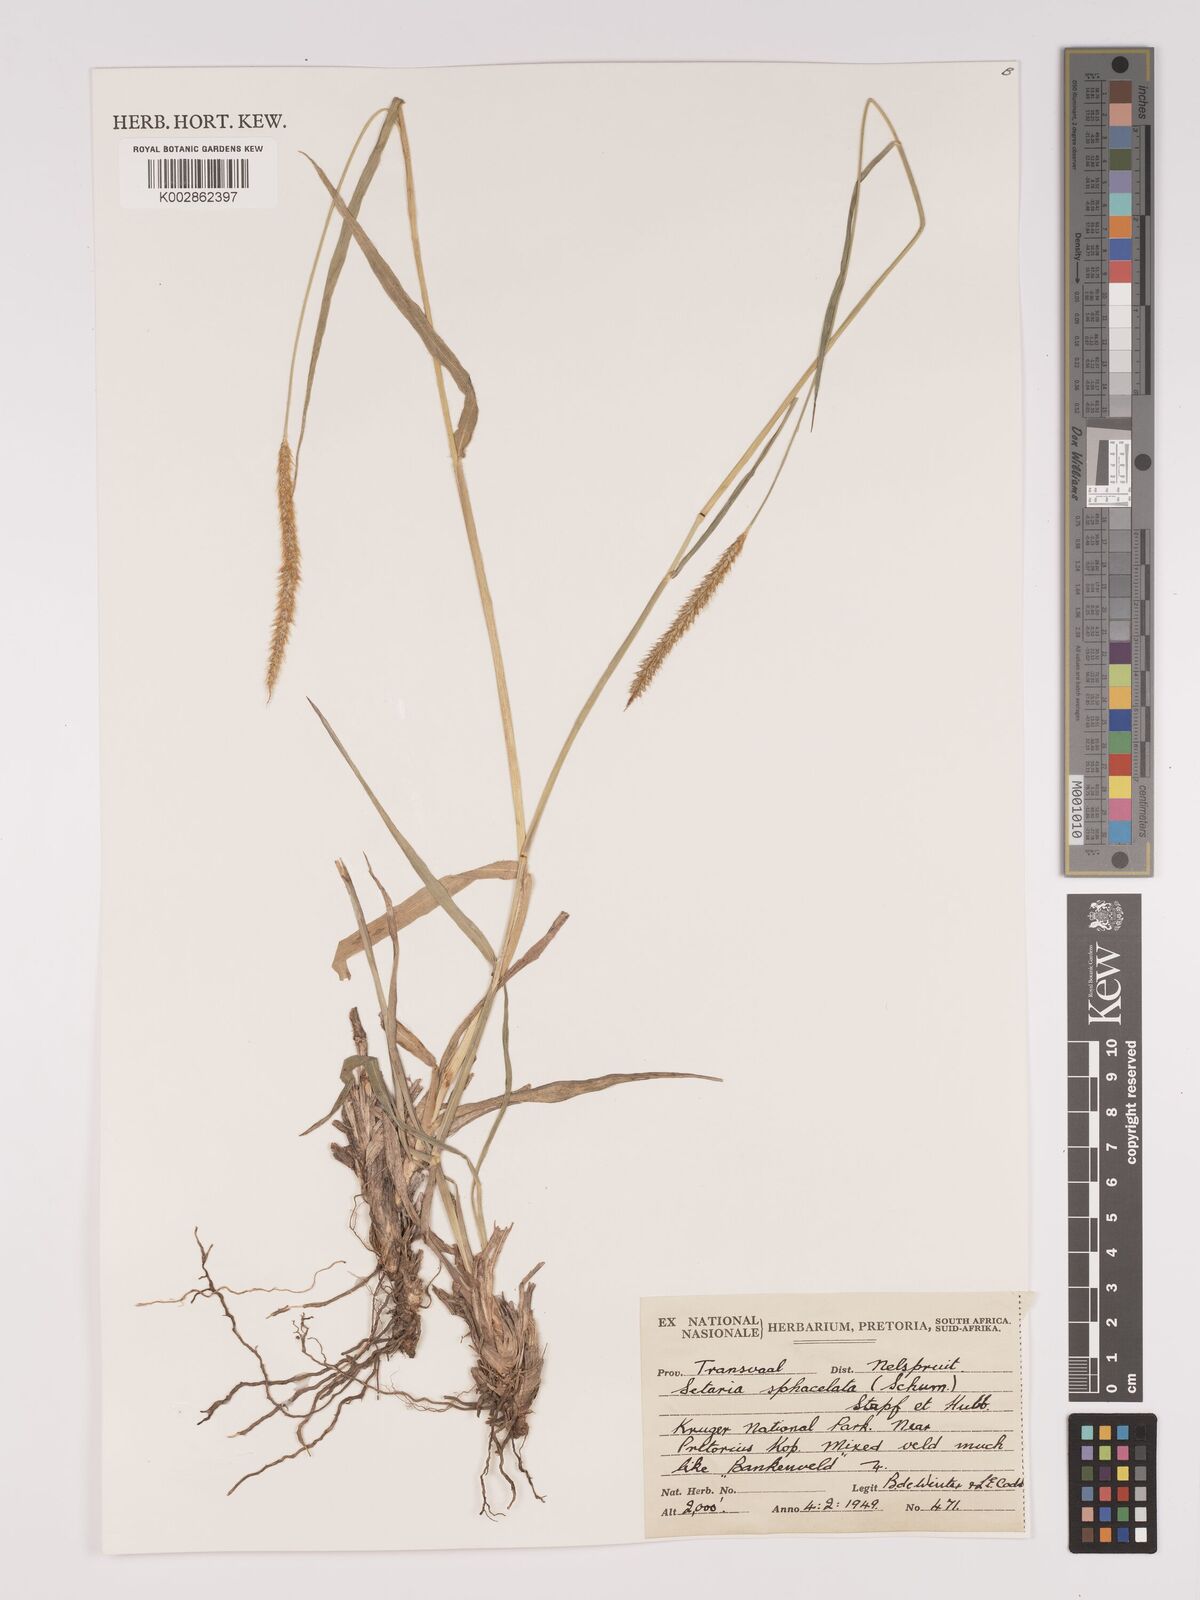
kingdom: Plantae
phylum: Tracheophyta
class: Liliopsida
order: Poales
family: Poaceae
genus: Setaria
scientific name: Setaria sphacelata
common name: African bristlegrass
